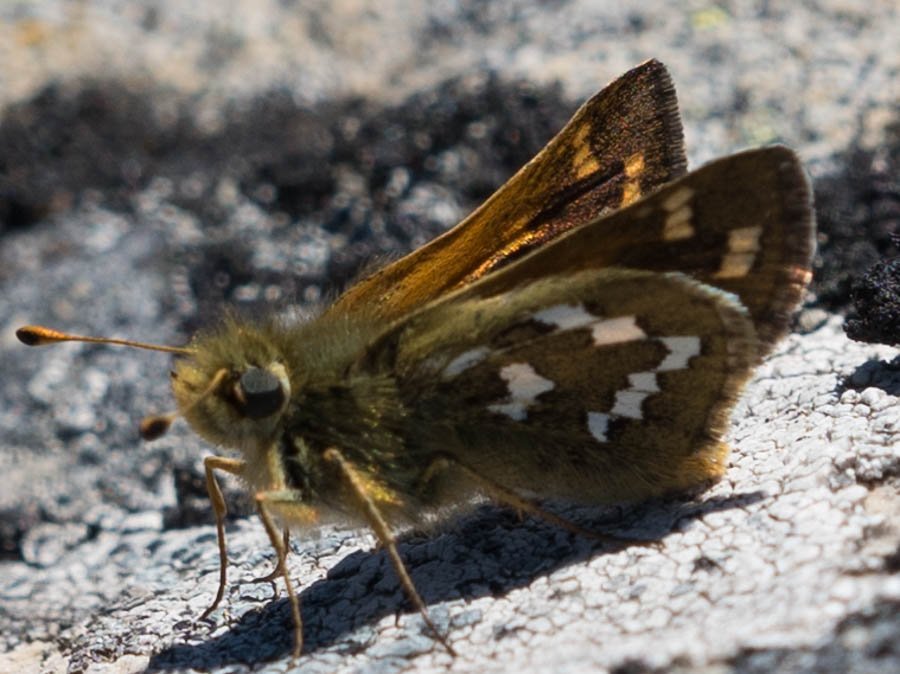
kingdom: Animalia
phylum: Arthropoda
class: Insecta
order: Lepidoptera
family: Hesperiidae
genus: Hesperia
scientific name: Hesperia comma
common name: Common Branded Skipper
